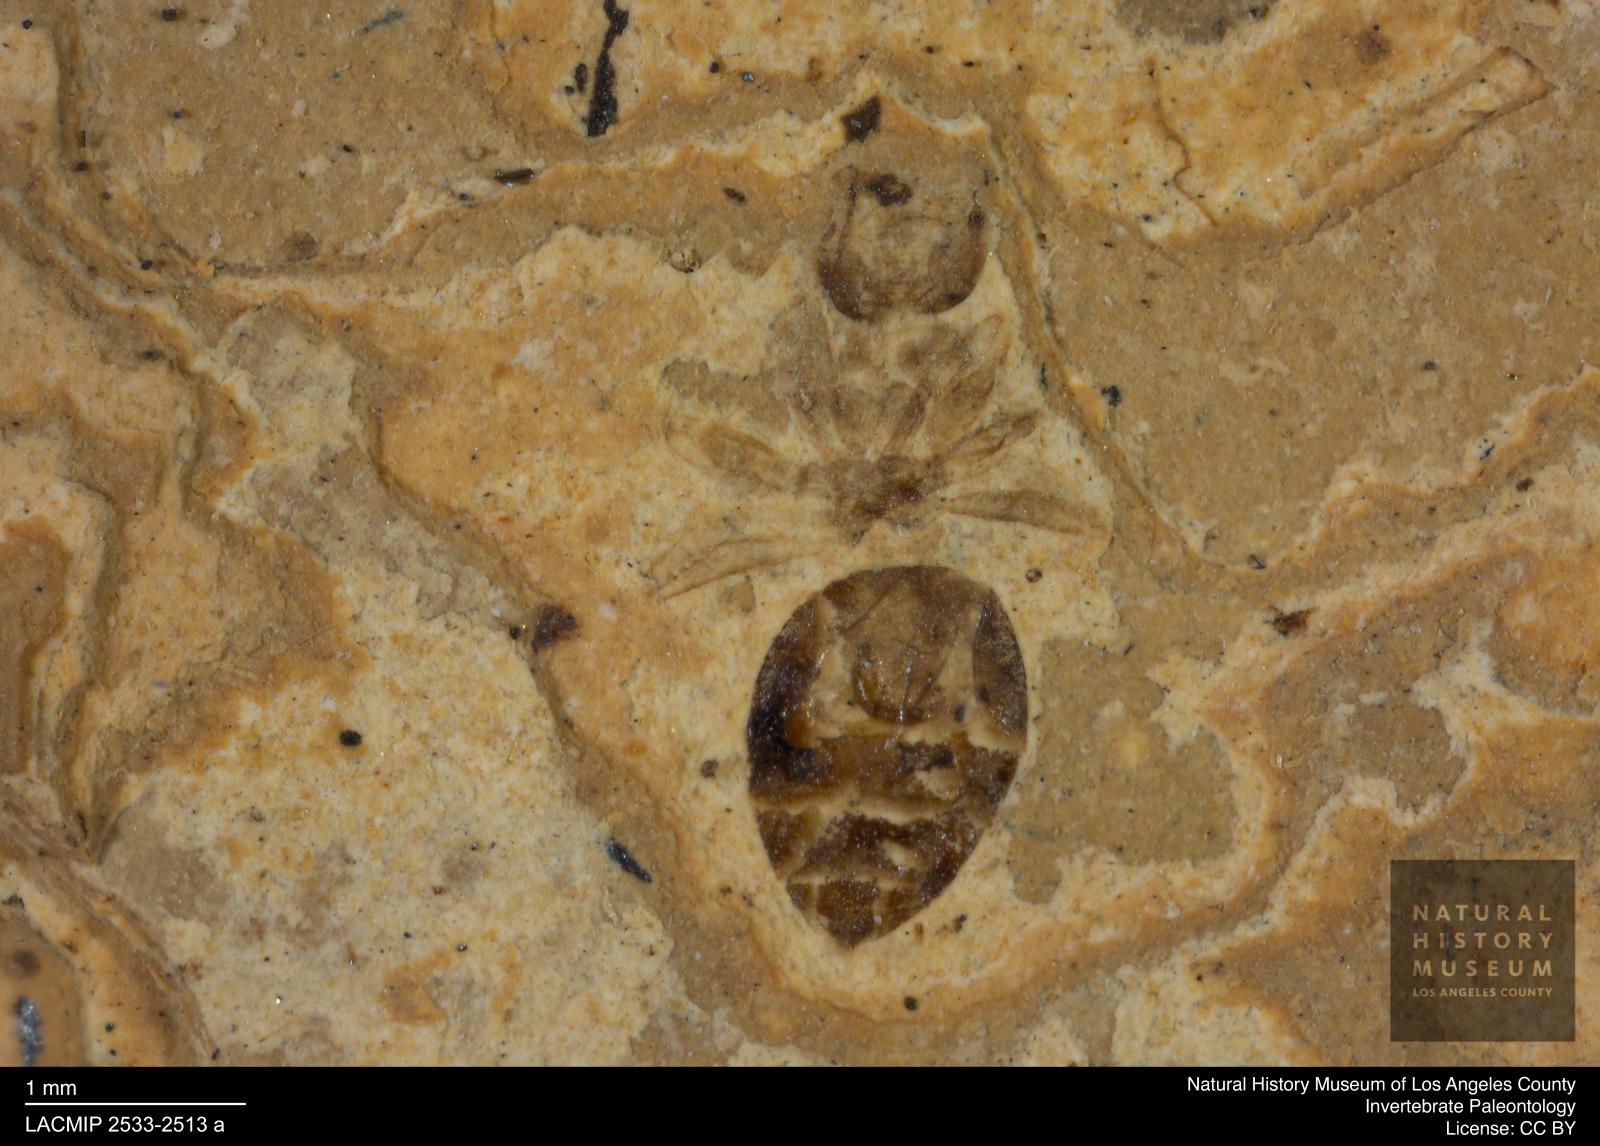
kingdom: Animalia
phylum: Arthropoda
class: Insecta
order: Hymenoptera
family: Formicidae
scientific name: Formicidae
